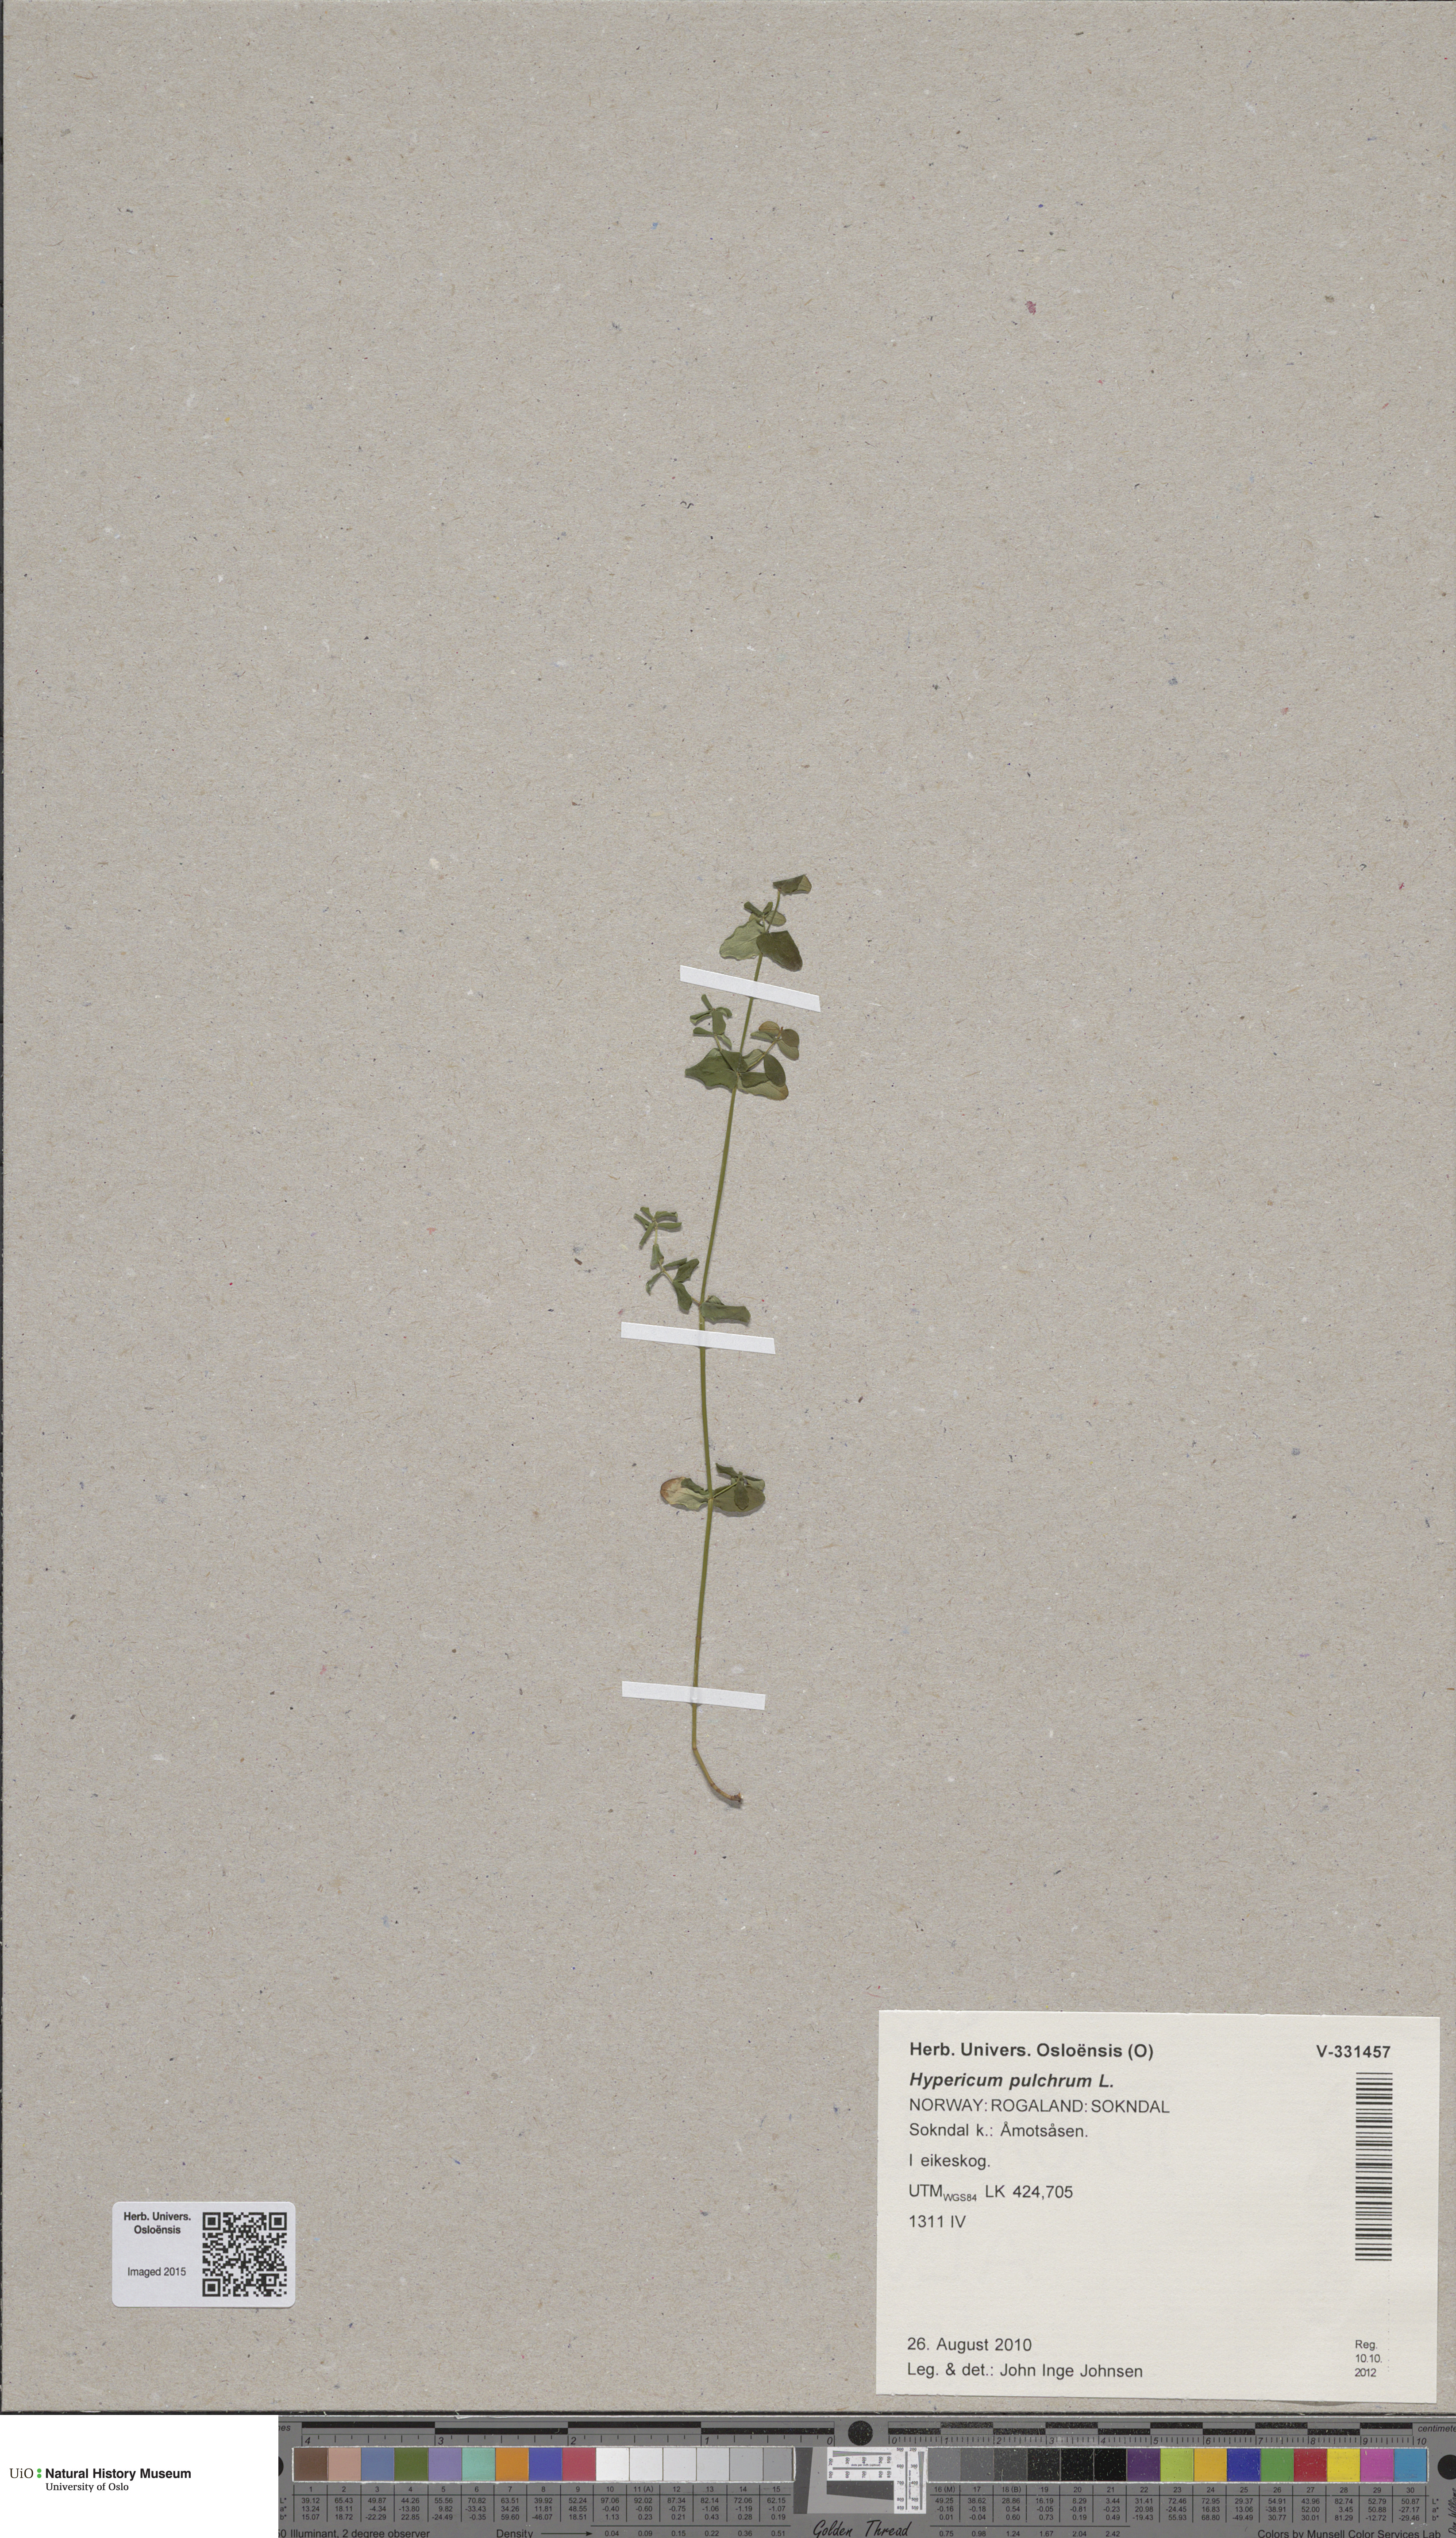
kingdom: Plantae
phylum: Tracheophyta
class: Magnoliopsida
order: Malpighiales
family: Hypericaceae
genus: Hypericum
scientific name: Hypericum pulchrum
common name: Slender st. john's-wort
